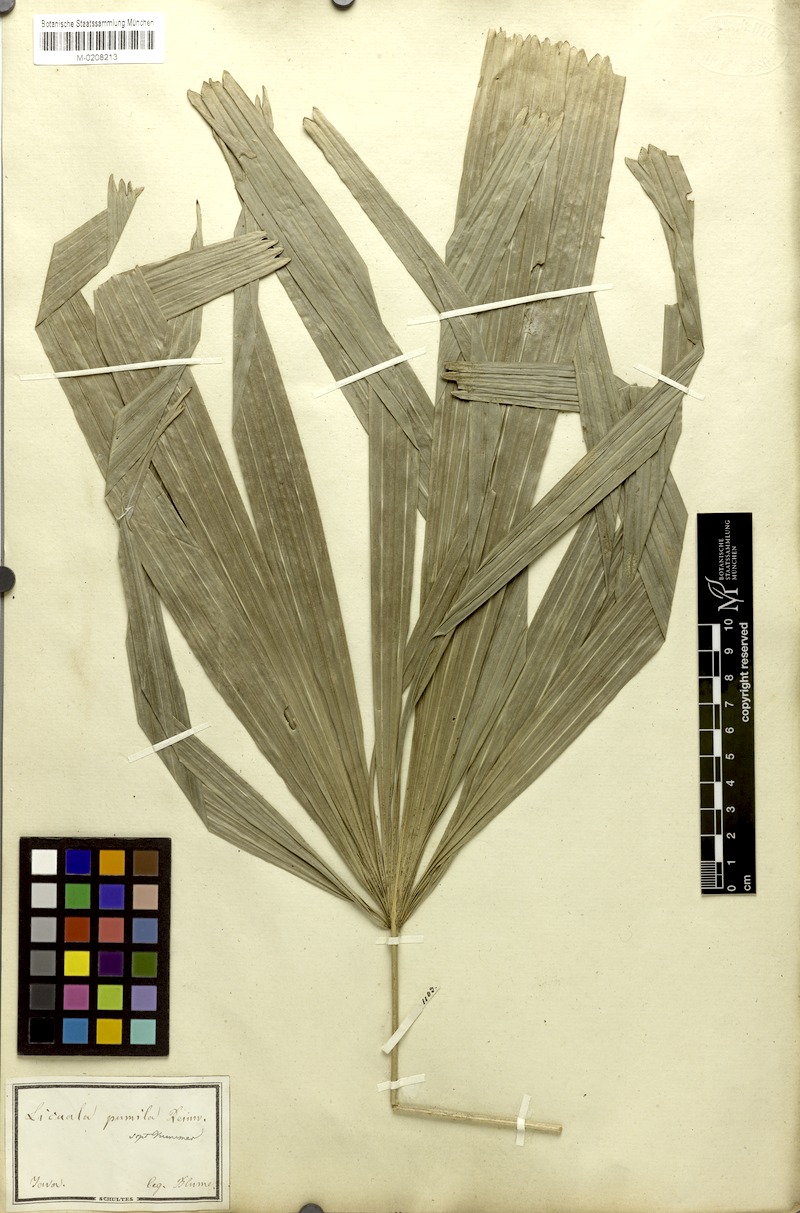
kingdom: Plantae
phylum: Tracheophyta
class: Liliopsida
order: Arecales
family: Arecaceae
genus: Licuala
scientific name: Licuala pumila
